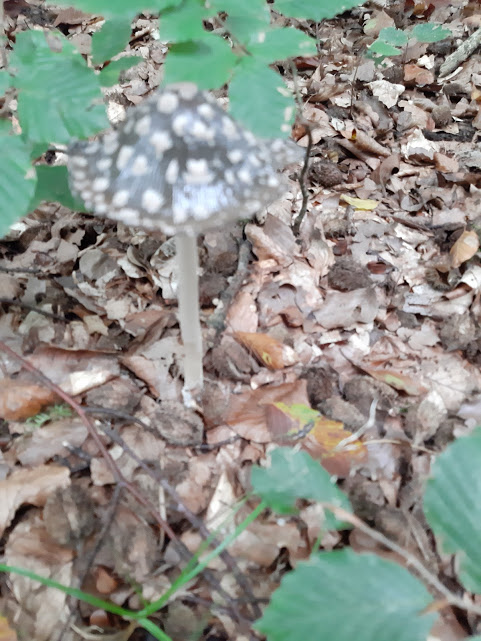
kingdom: Fungi
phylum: Basidiomycota
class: Agaricomycetes
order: Agaricales
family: Psathyrellaceae
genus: Coprinopsis
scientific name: Coprinopsis picacea
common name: skade-blækhat
